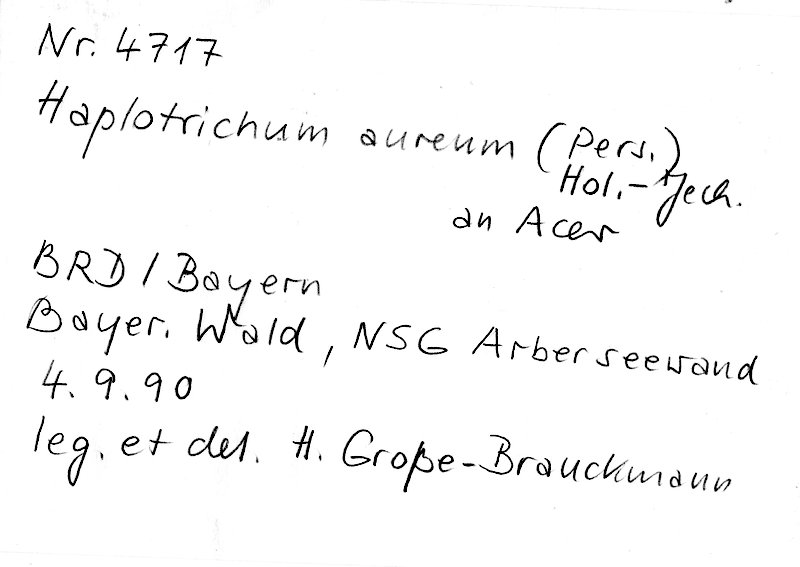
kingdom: Plantae
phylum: Tracheophyta
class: Magnoliopsida
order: Sapindales
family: Sapindaceae
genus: Acer
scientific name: Acer
